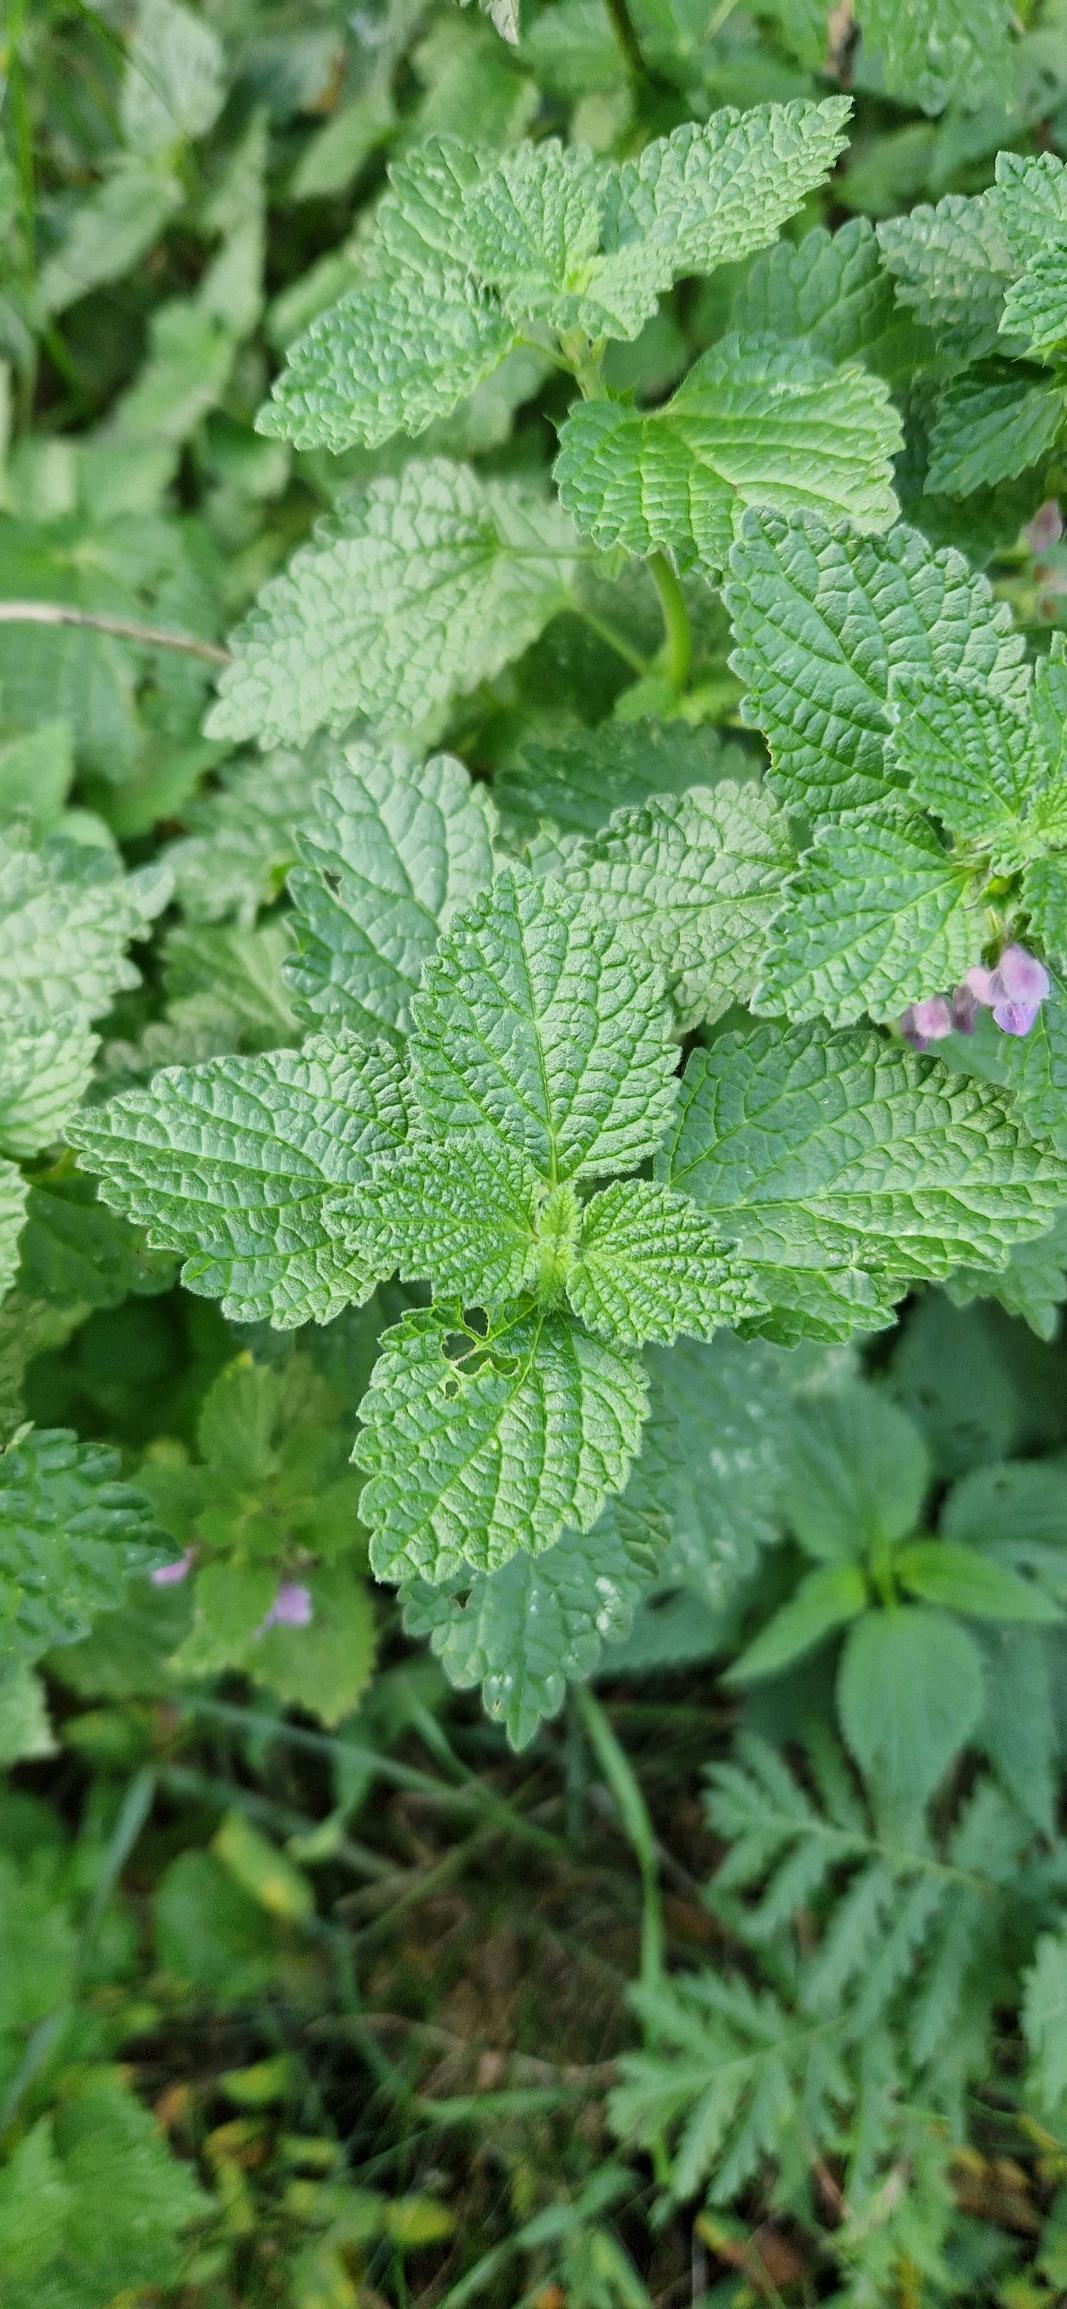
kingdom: Plantae
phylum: Tracheophyta
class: Magnoliopsida
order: Lamiales
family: Lamiaceae
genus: Ballota
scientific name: Ballota nigra
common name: Rød tandbæger
